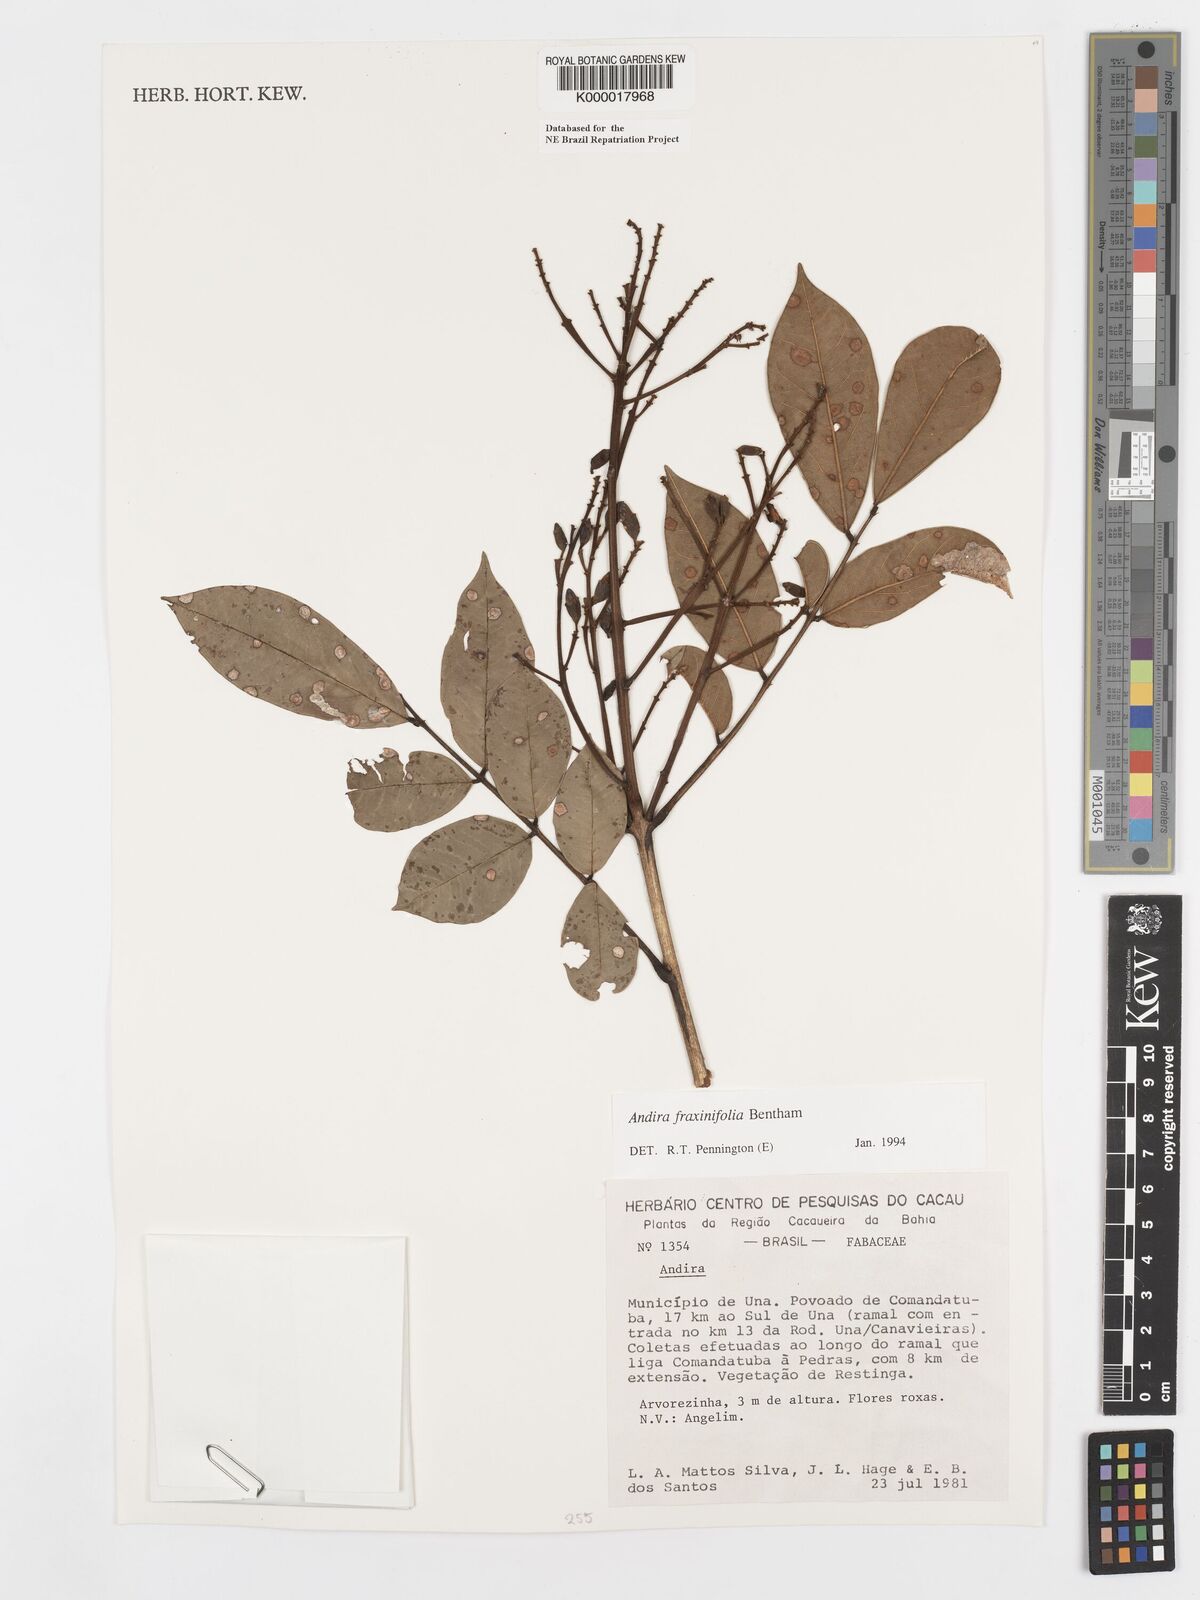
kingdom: Plantae
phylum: Tracheophyta
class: Magnoliopsida
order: Fabales
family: Fabaceae
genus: Andira
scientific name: Andira fraxinifolia
